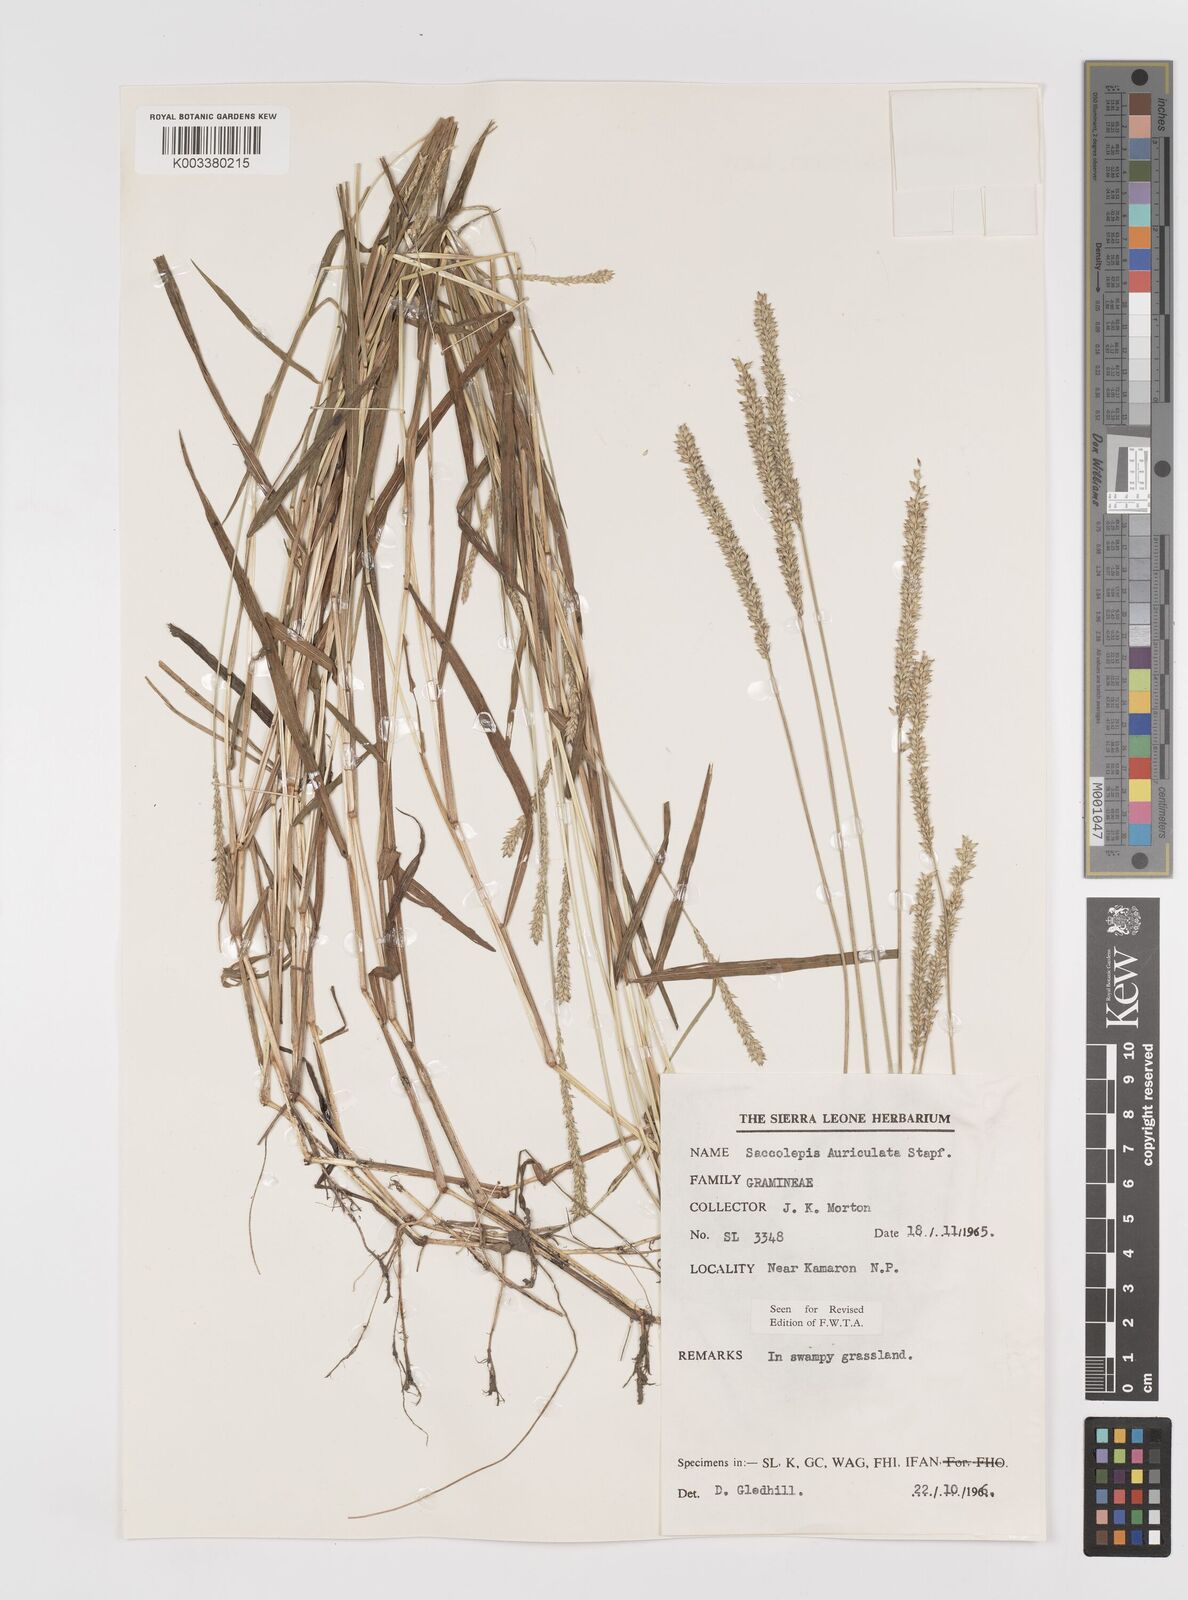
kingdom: Plantae
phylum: Tracheophyta
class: Liliopsida
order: Poales
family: Poaceae
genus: Sacciolepis
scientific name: Sacciolepis indica
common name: Glenwoodgrass
